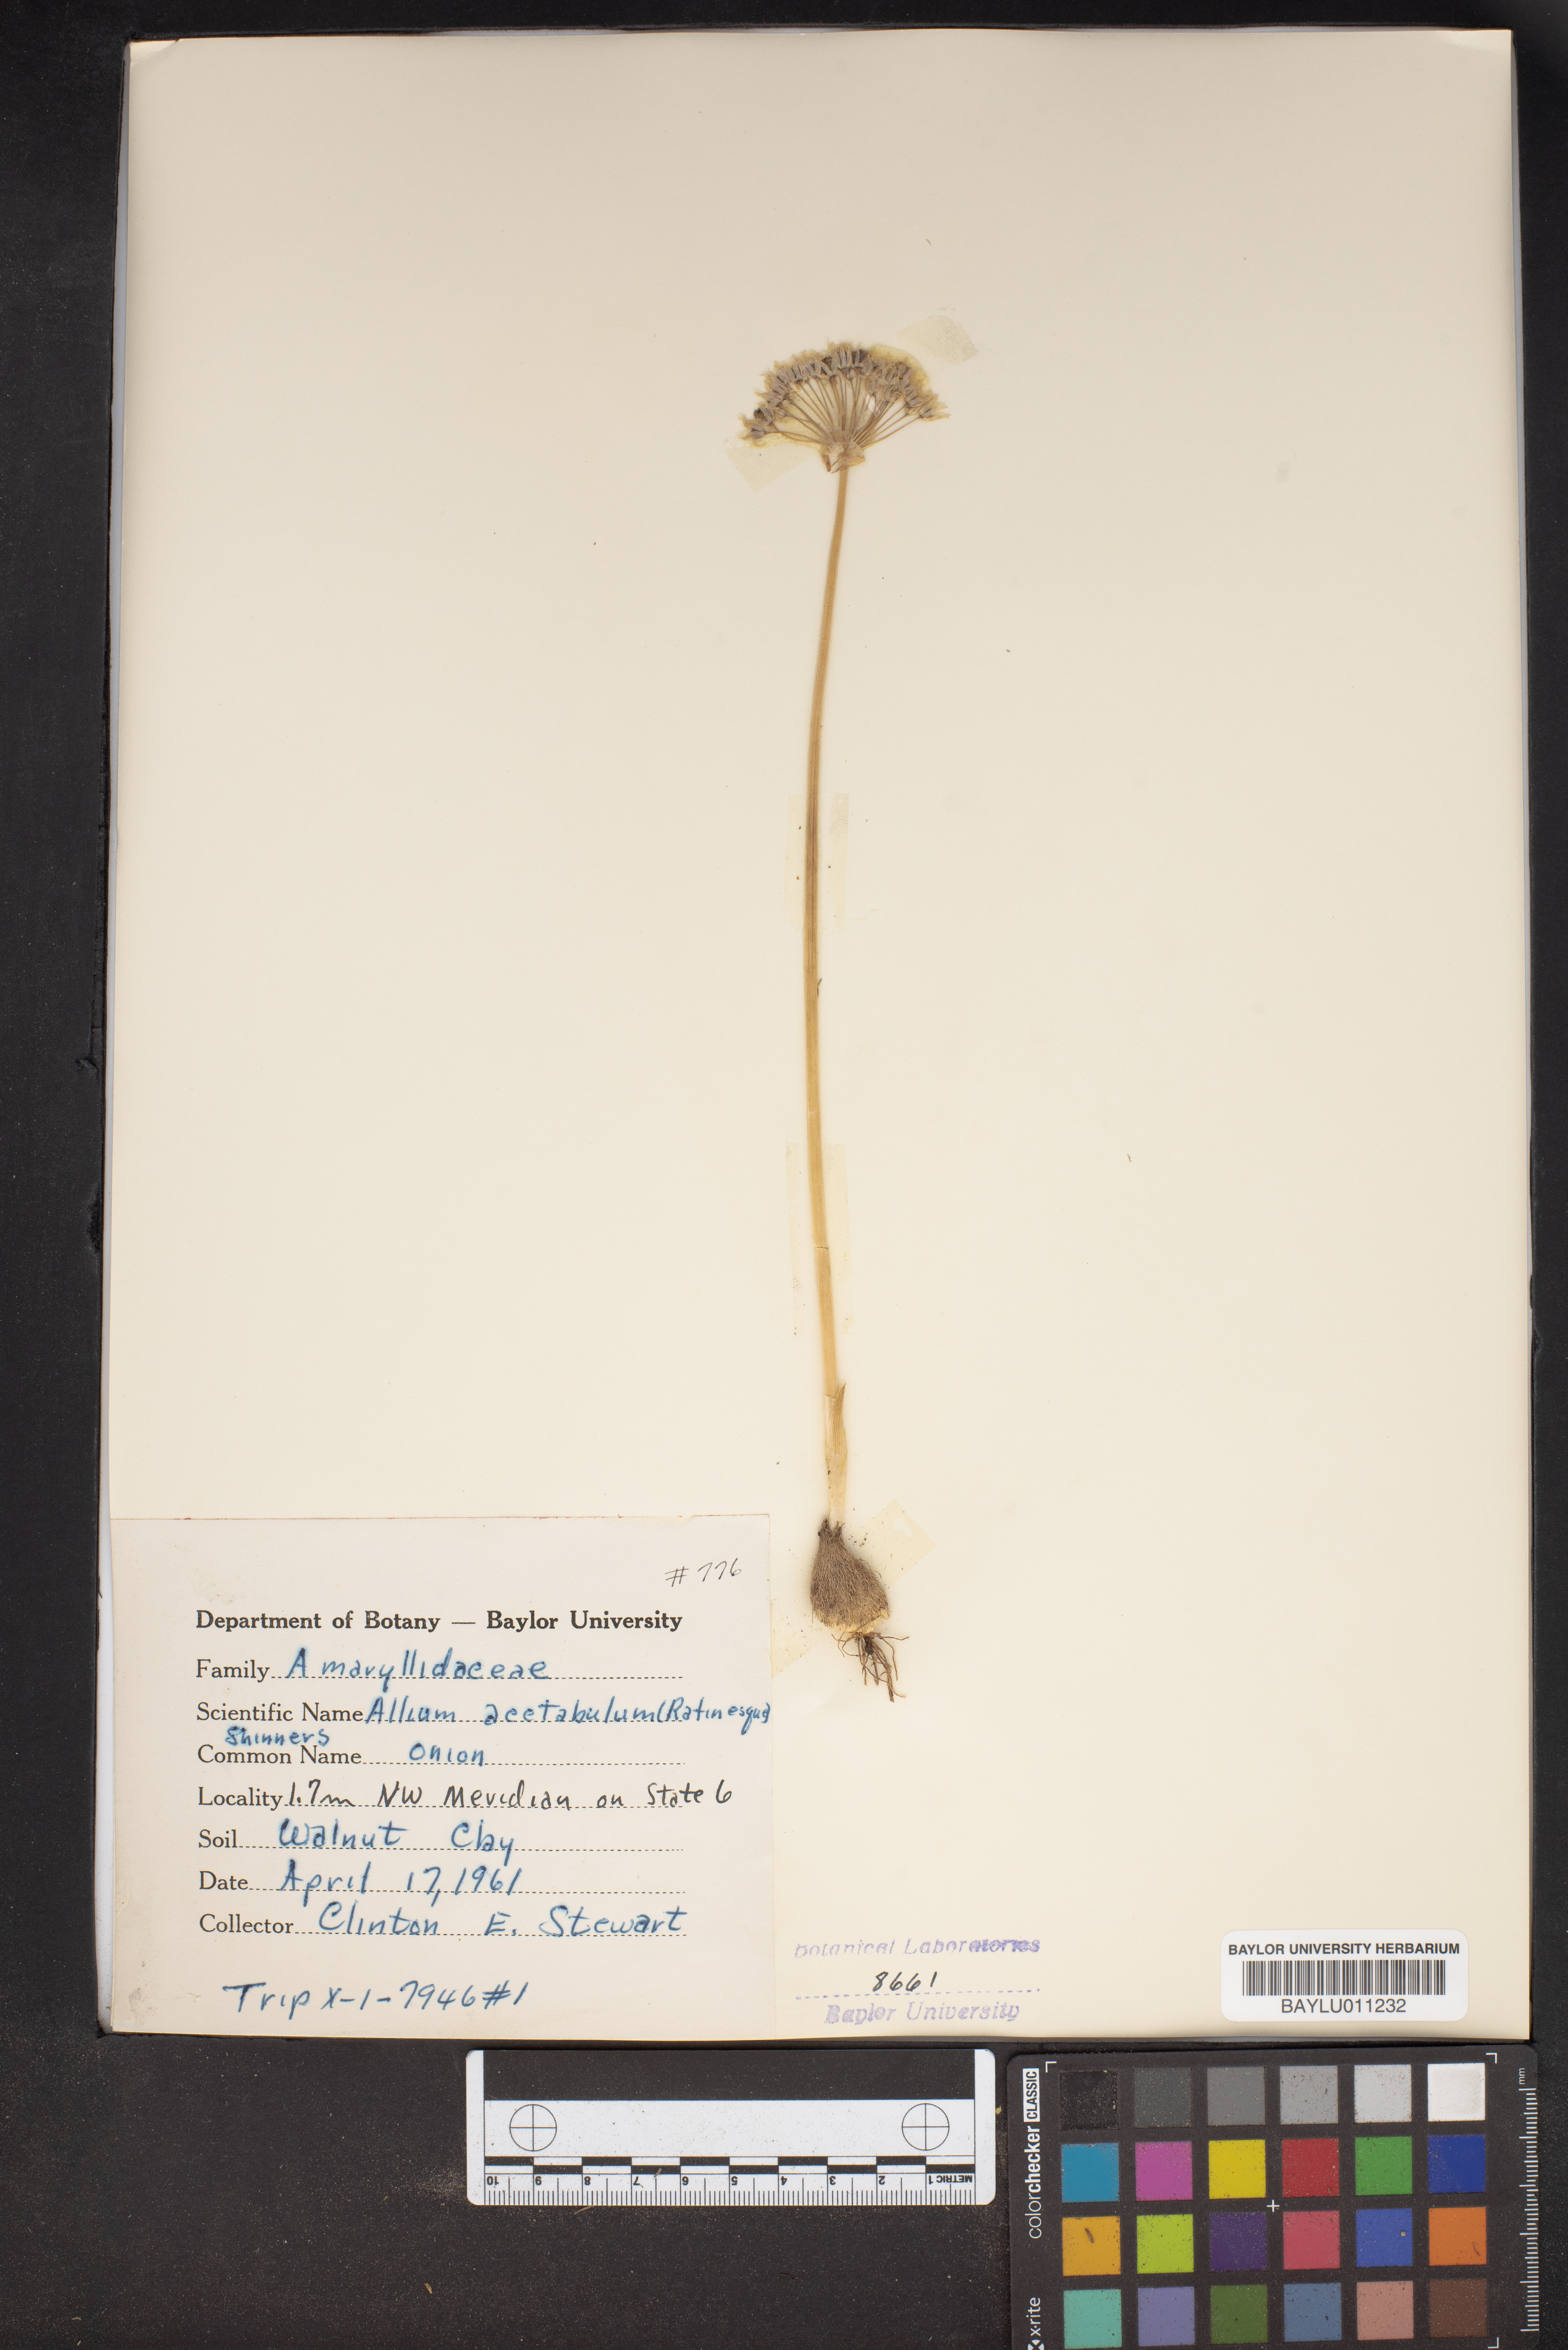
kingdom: Plantae
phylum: Tracheophyta
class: Liliopsida
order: Asparagales
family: Amaryllidaceae
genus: Allium
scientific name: Allium canadense
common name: Meadow garlic
